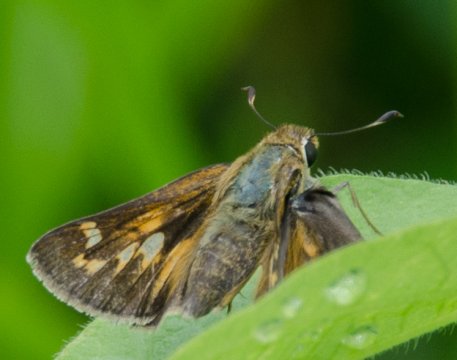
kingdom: Animalia
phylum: Arthropoda
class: Insecta
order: Lepidoptera
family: Hesperiidae
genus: Atalopedes
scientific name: Atalopedes campestris
